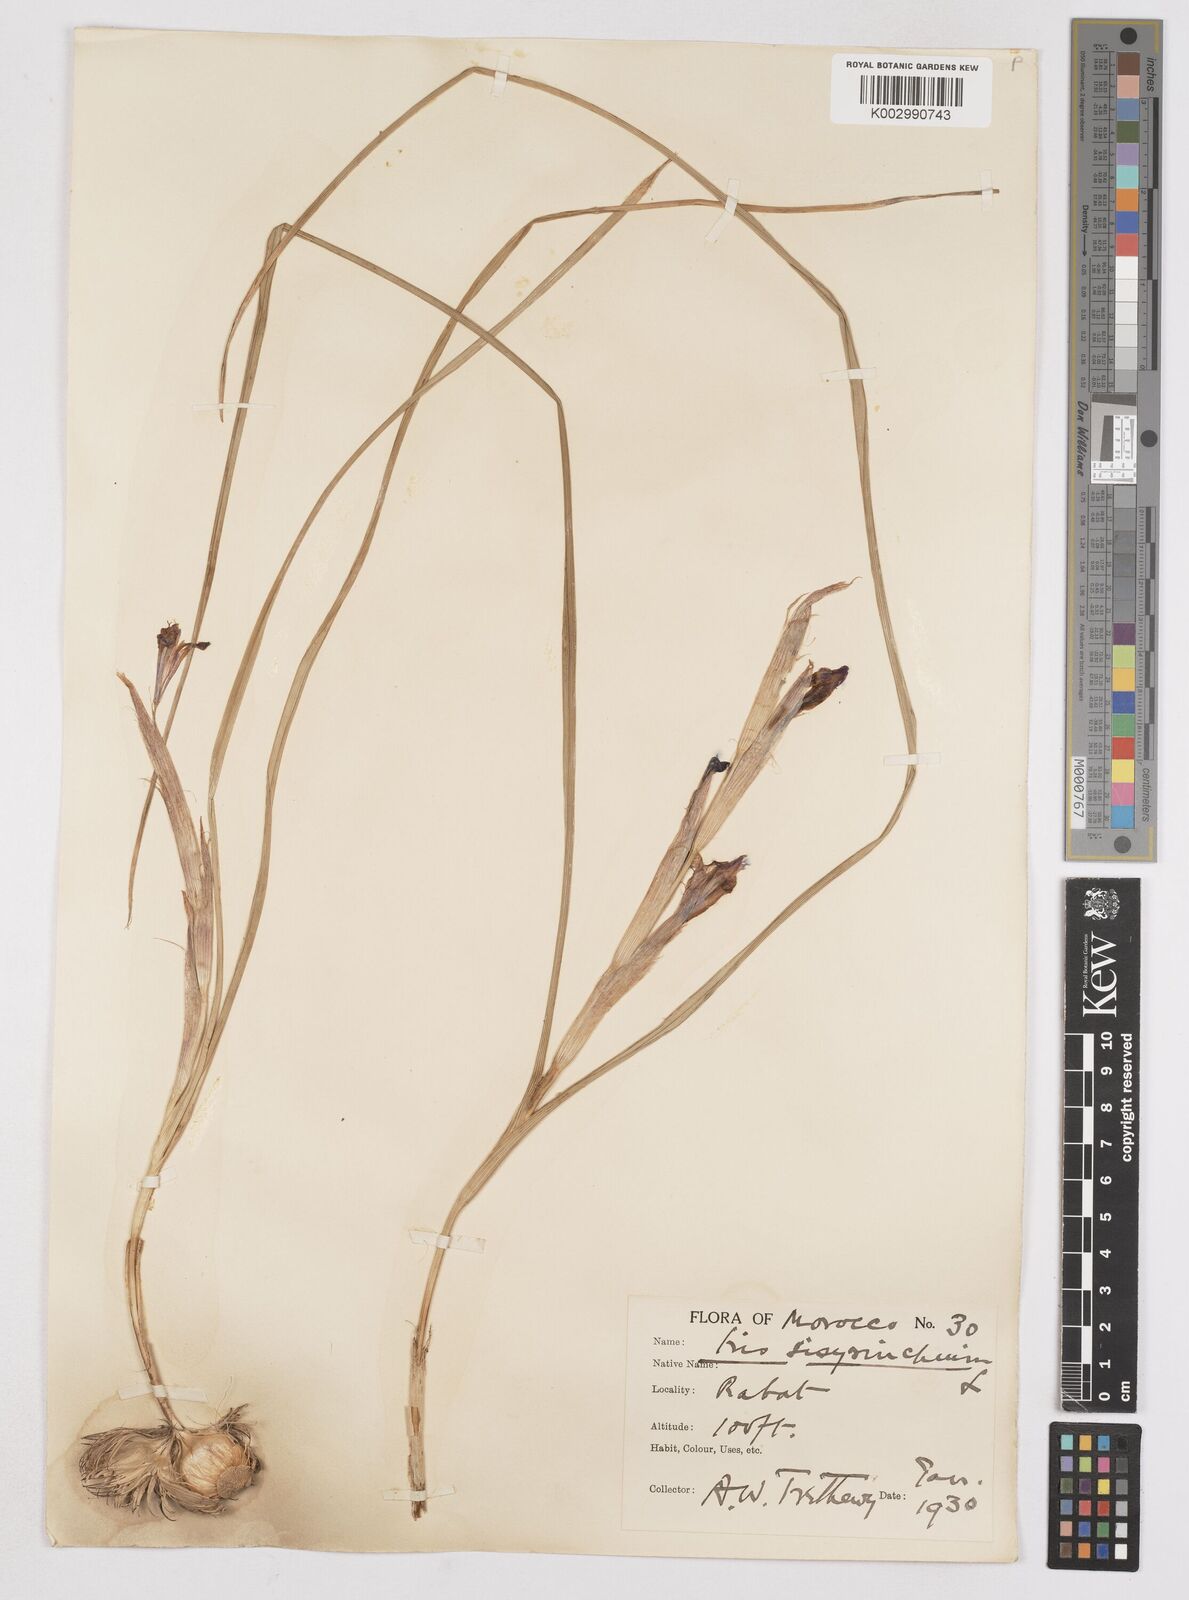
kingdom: Plantae
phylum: Tracheophyta
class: Liliopsida
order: Asparagales
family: Iridaceae
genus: Moraea
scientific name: Moraea sisyrinchium
